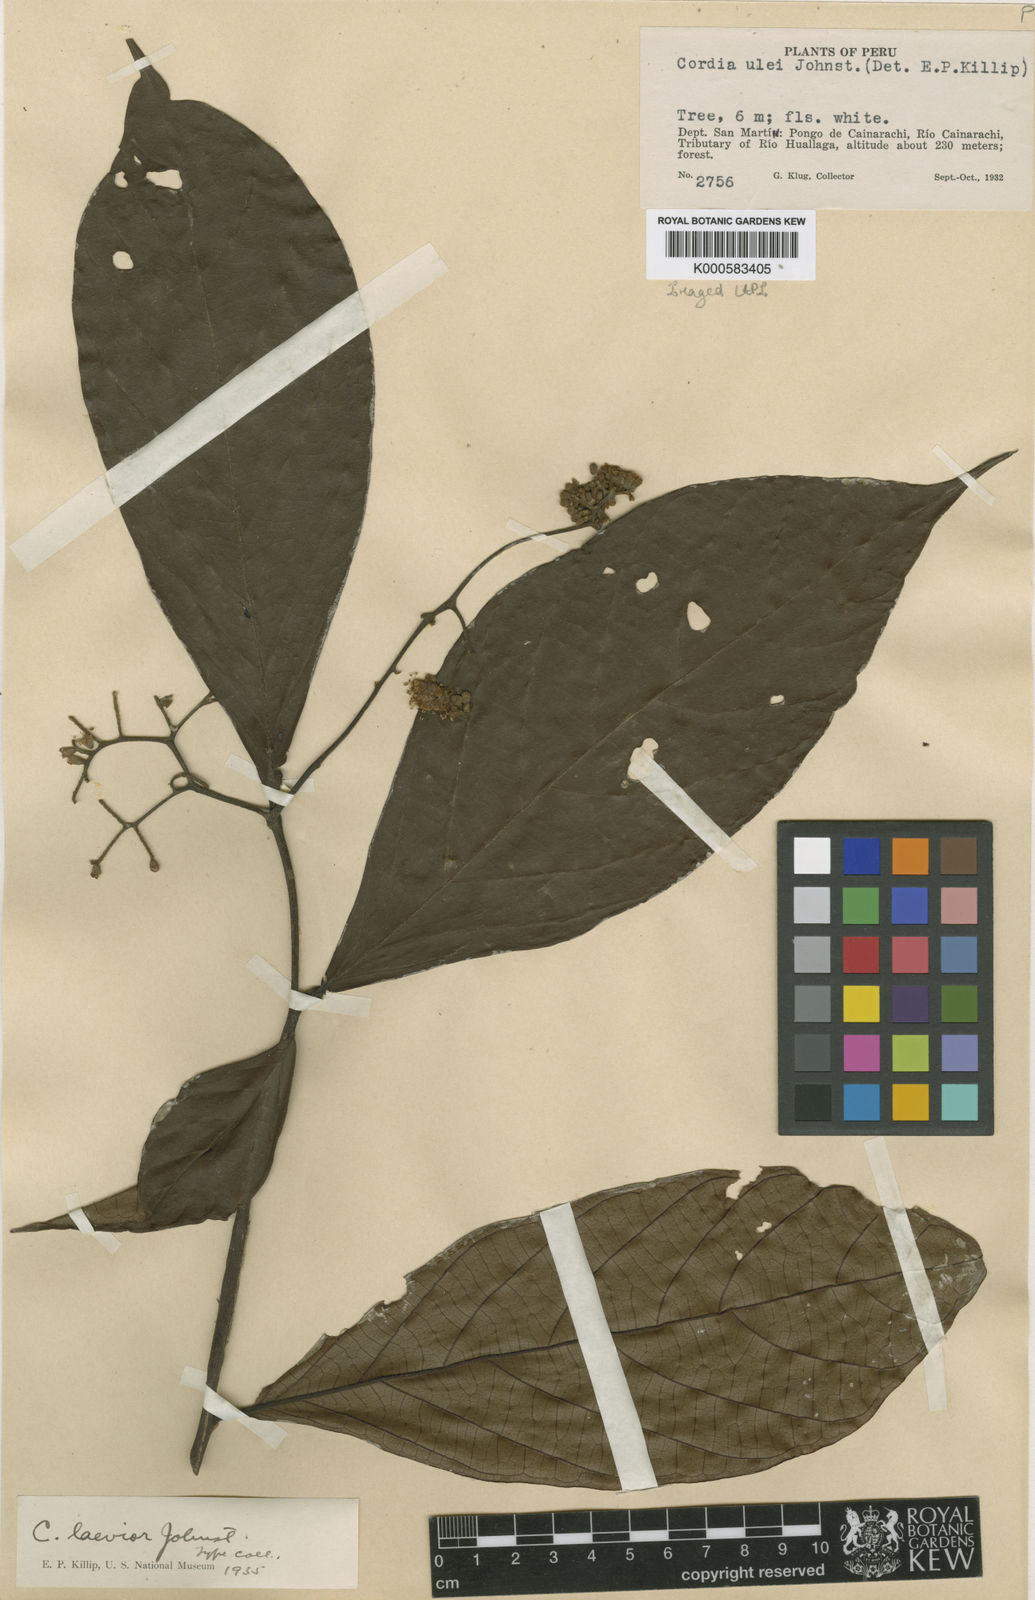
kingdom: Plantae
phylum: Tracheophyta
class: Magnoliopsida
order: Boraginales
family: Cordiaceae
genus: Cordia
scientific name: Cordia laevior
